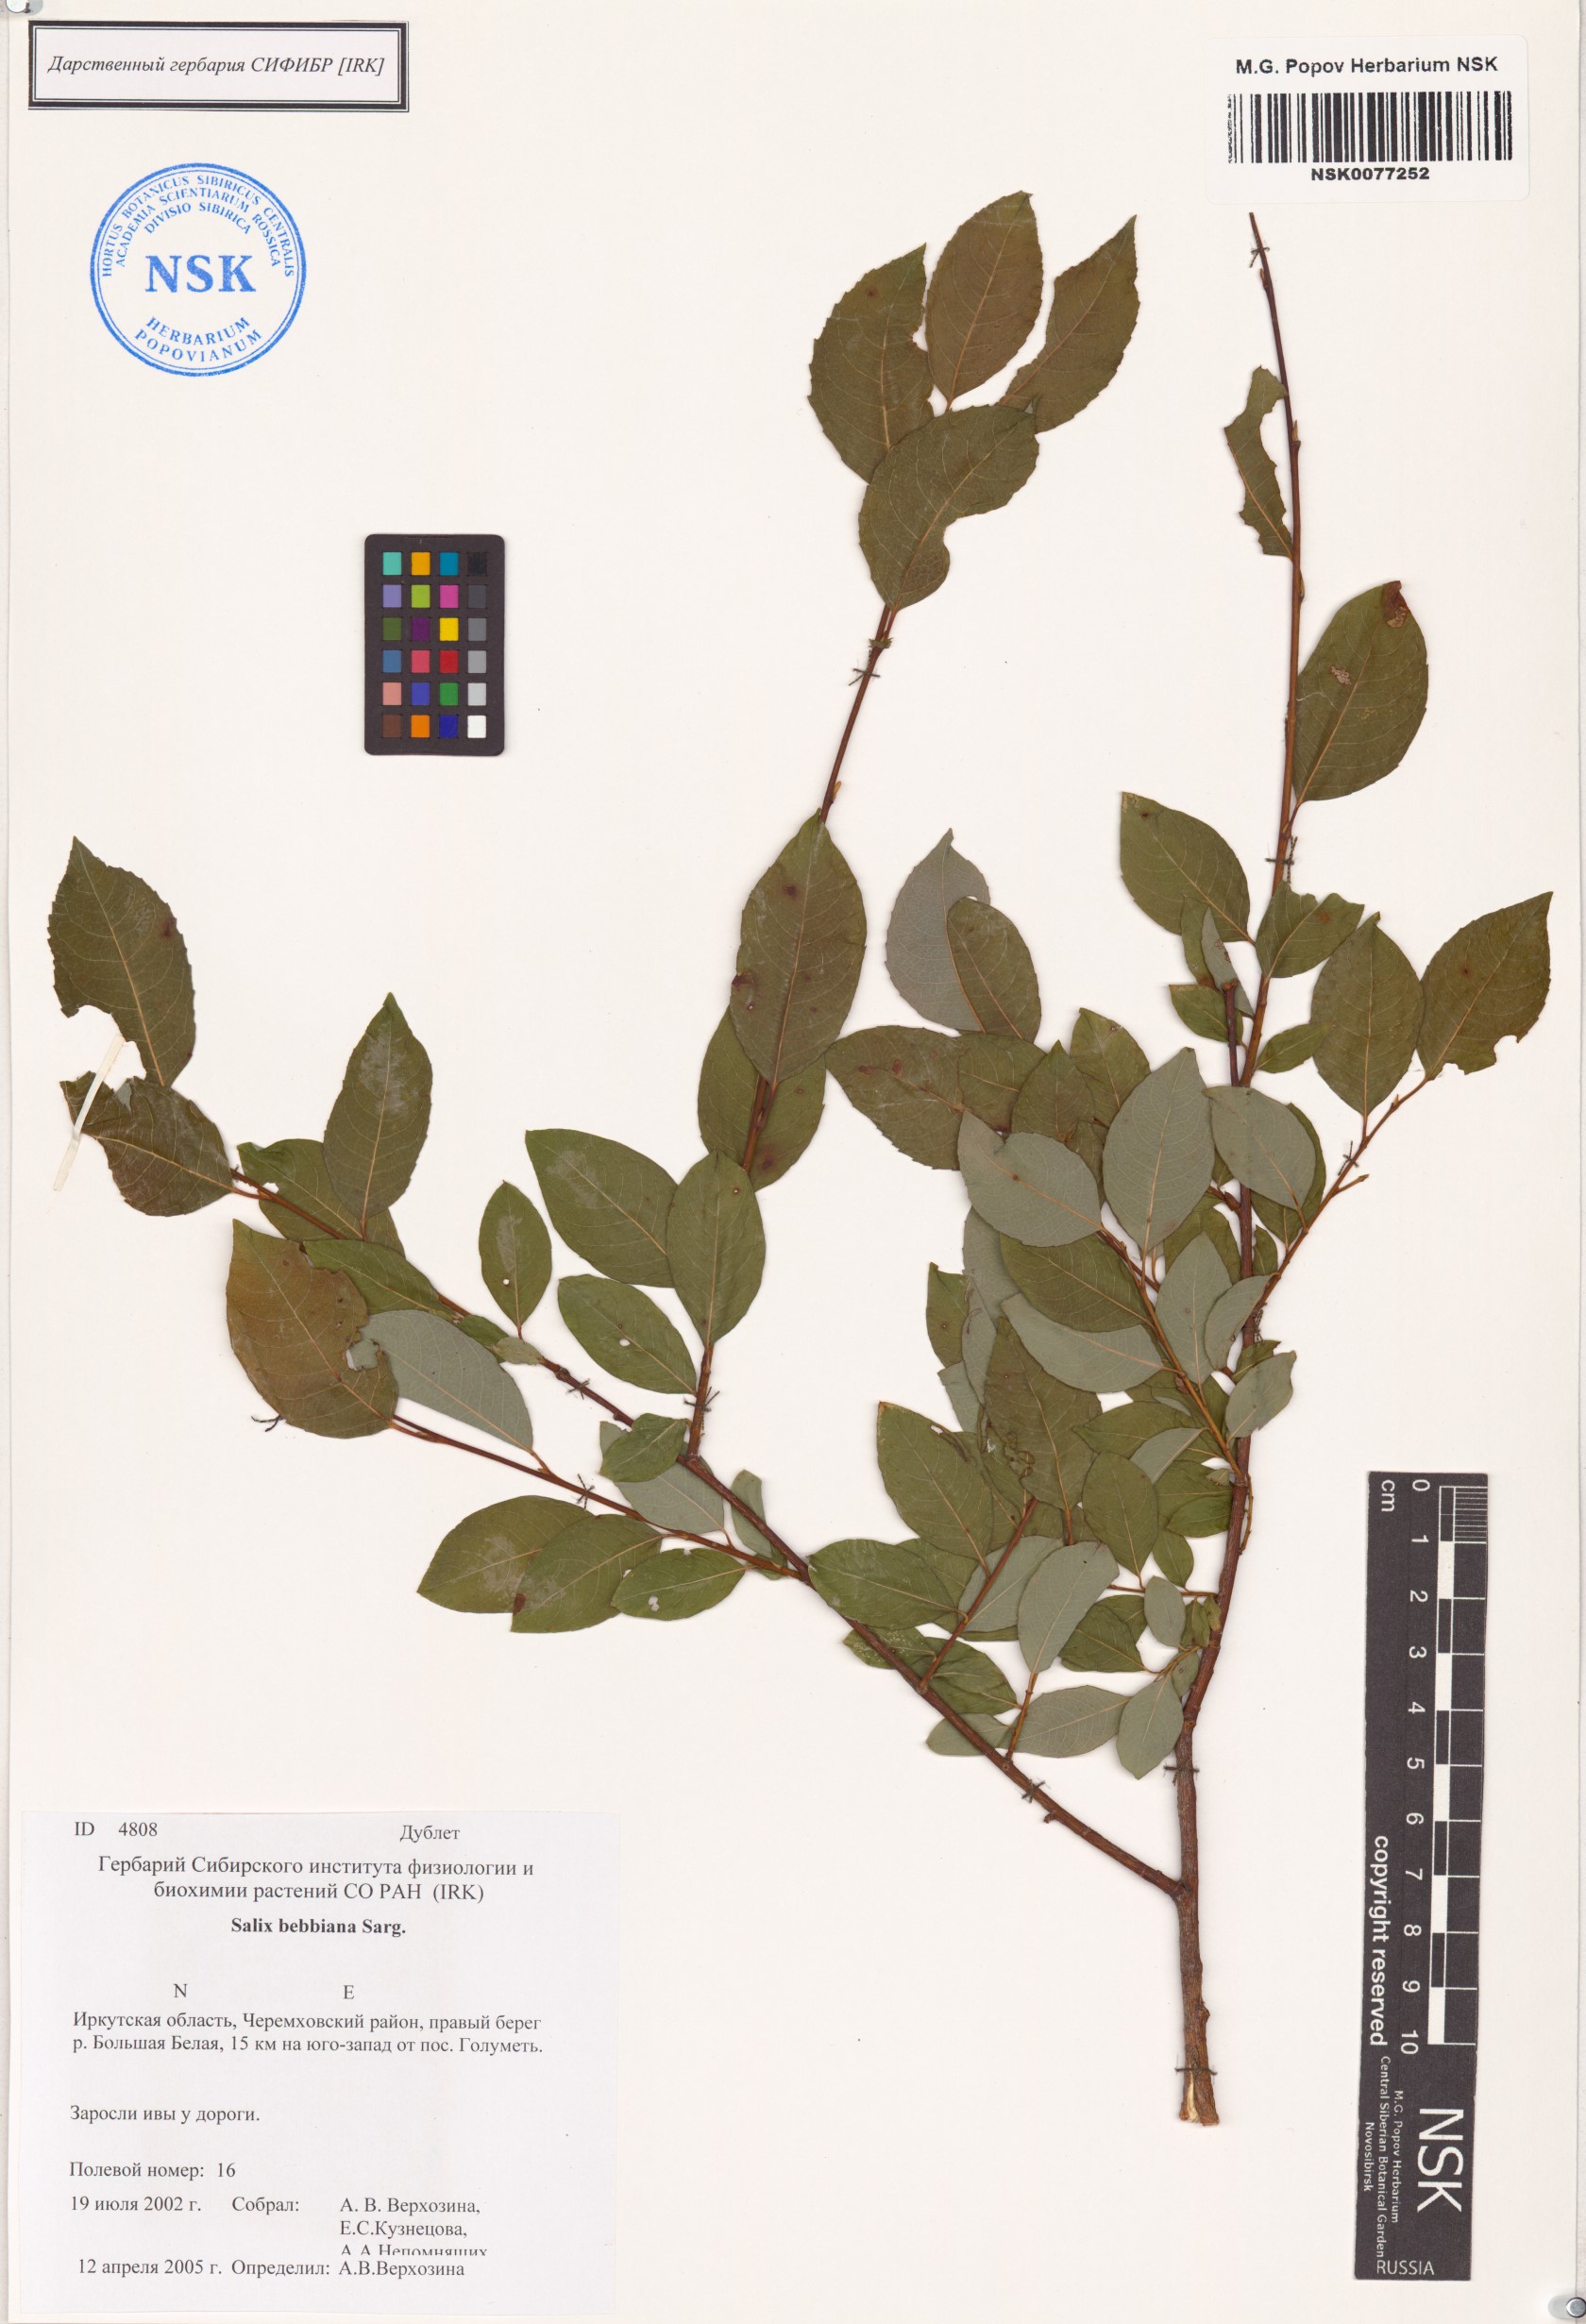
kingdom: Plantae
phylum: Tracheophyta
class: Magnoliopsida
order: Malpighiales
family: Salicaceae
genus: Salix
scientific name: Salix bebbiana
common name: Bebb's willow
